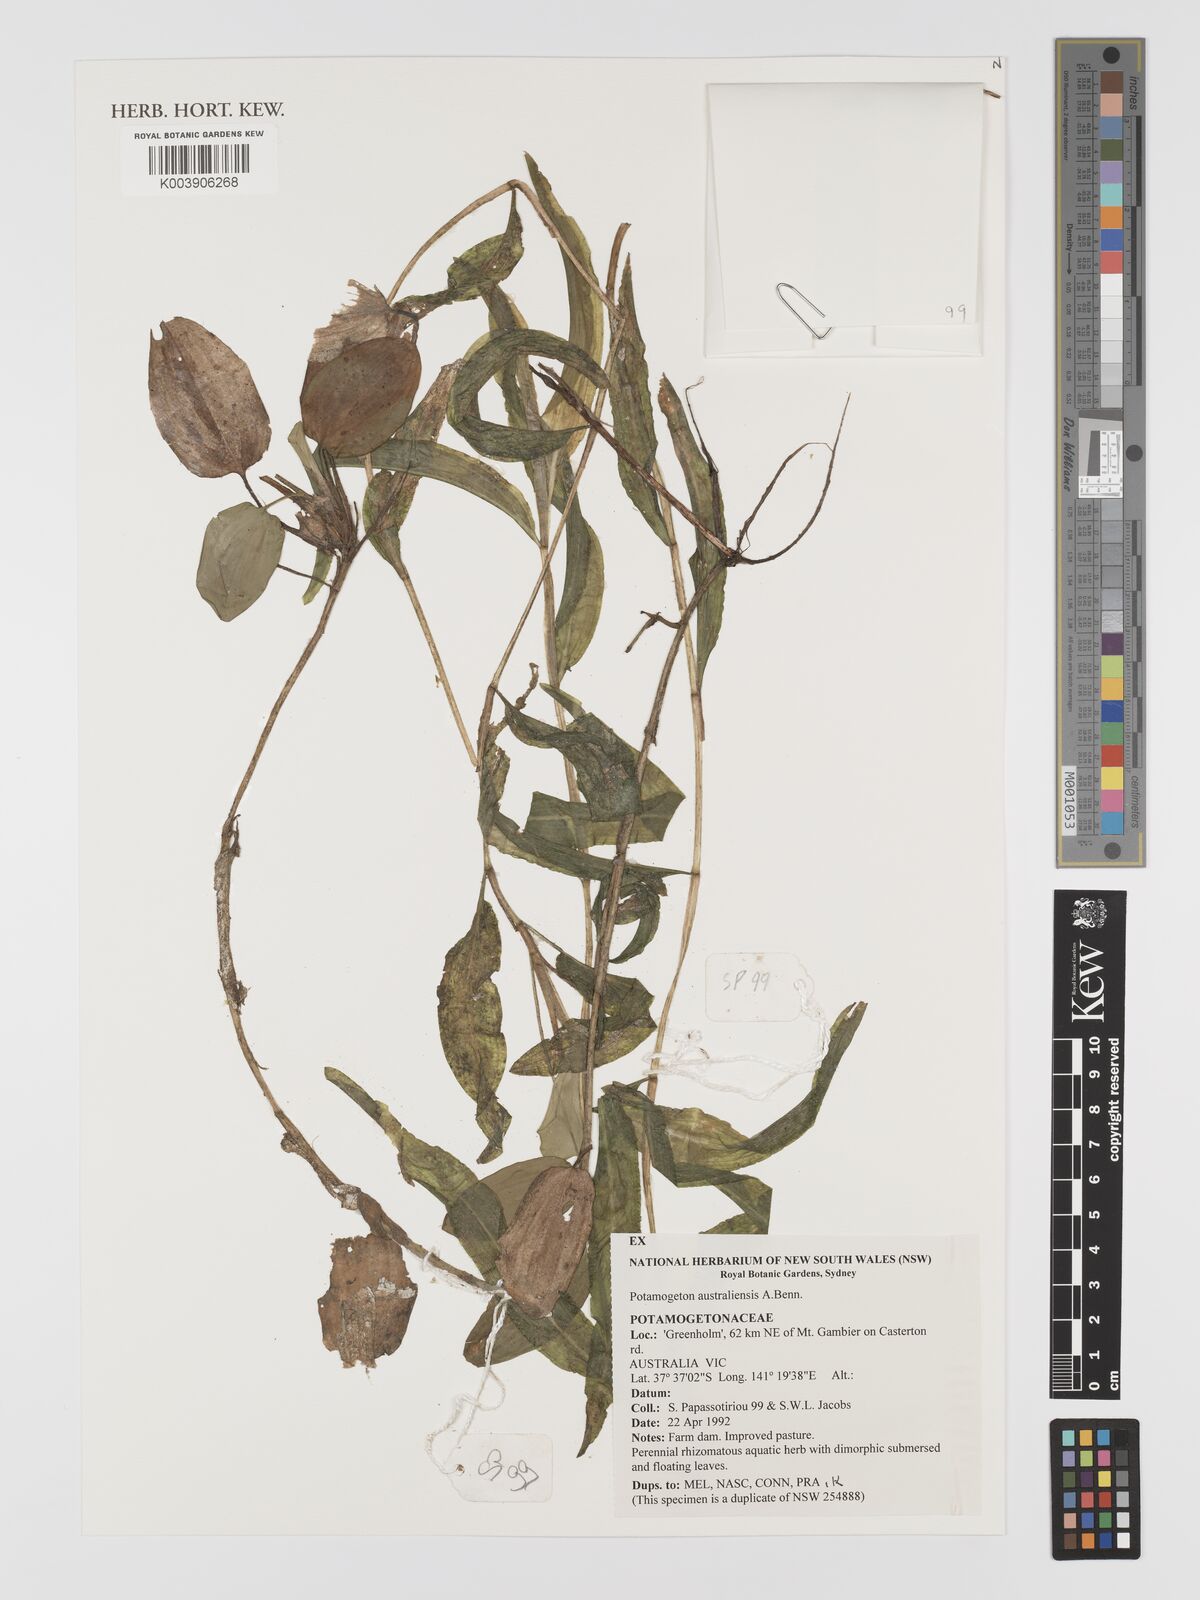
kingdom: Plantae
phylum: Tracheophyta
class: Liliopsida
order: Alismatales
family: Potamogetonaceae
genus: Potamogeton
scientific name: Potamogeton australiensis
